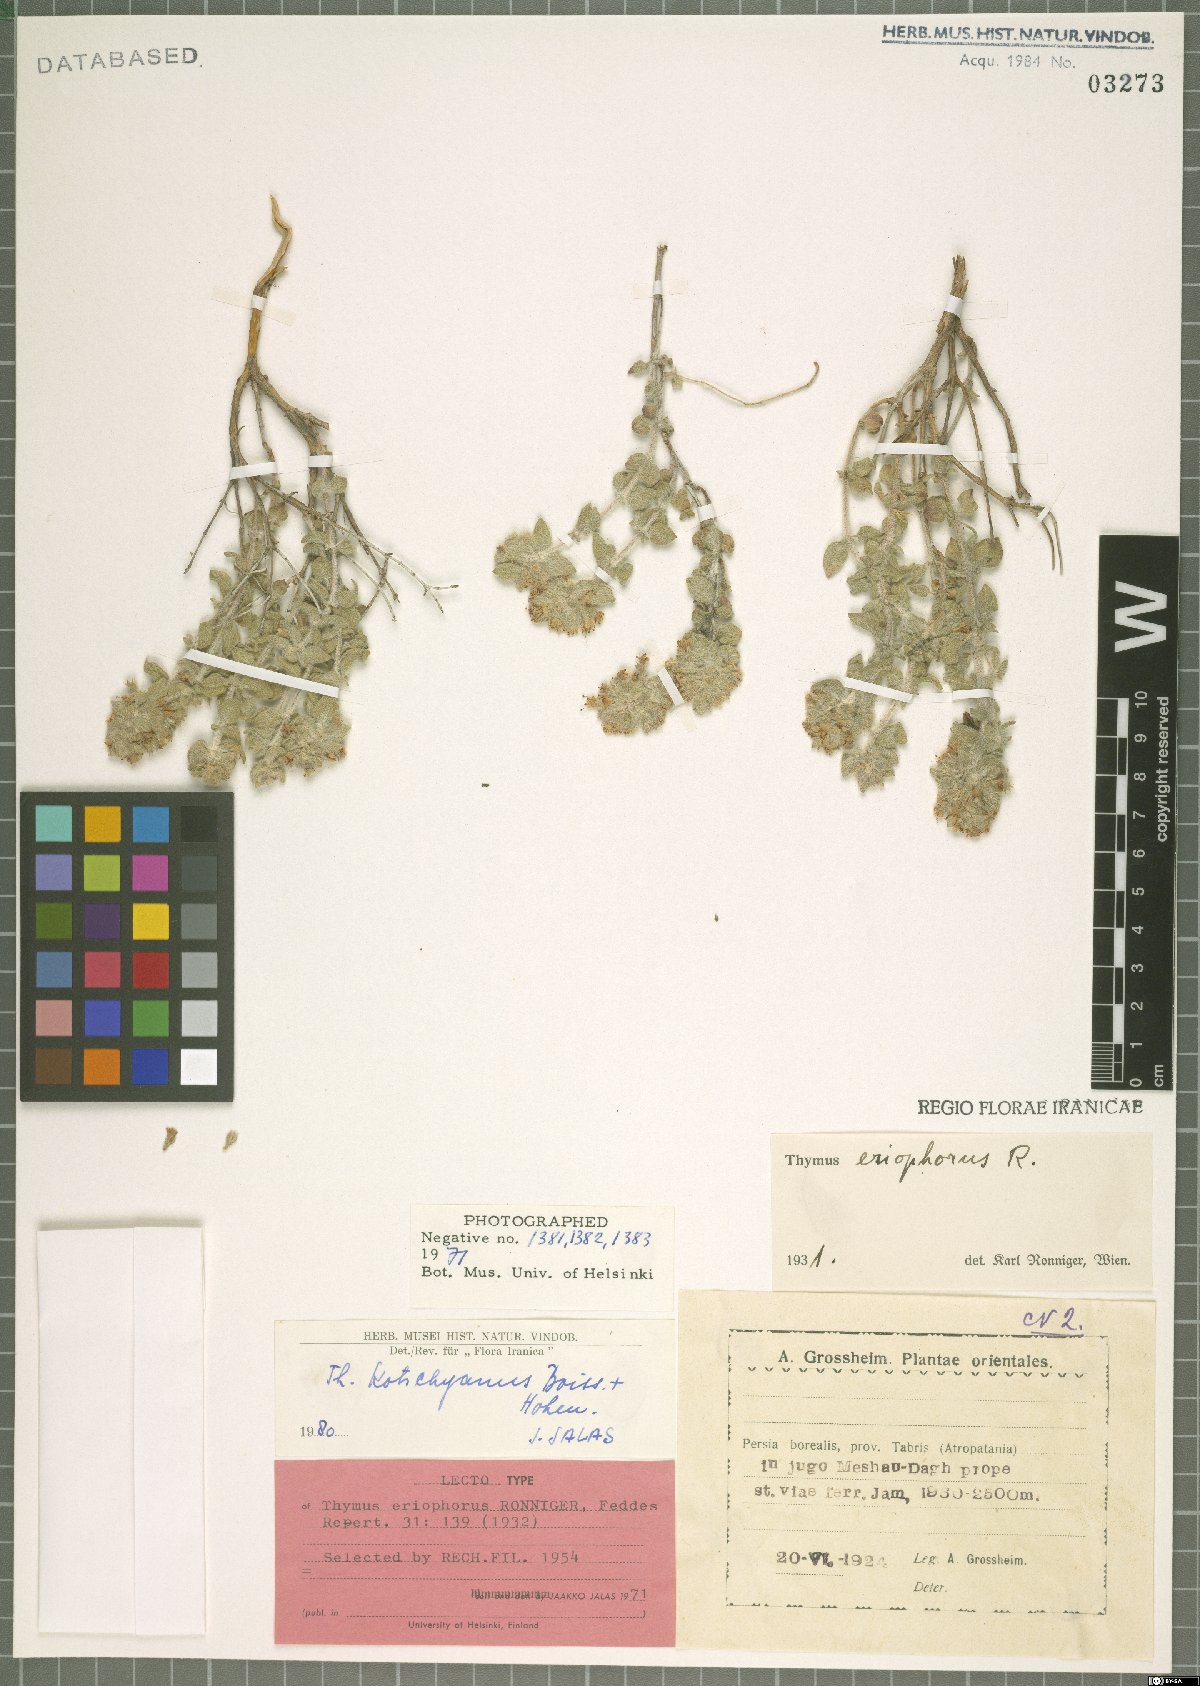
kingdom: Plantae
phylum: Tracheophyta
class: Magnoliopsida
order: Lamiales
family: Lamiaceae
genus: Thymus
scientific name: Thymus kotschyanus
